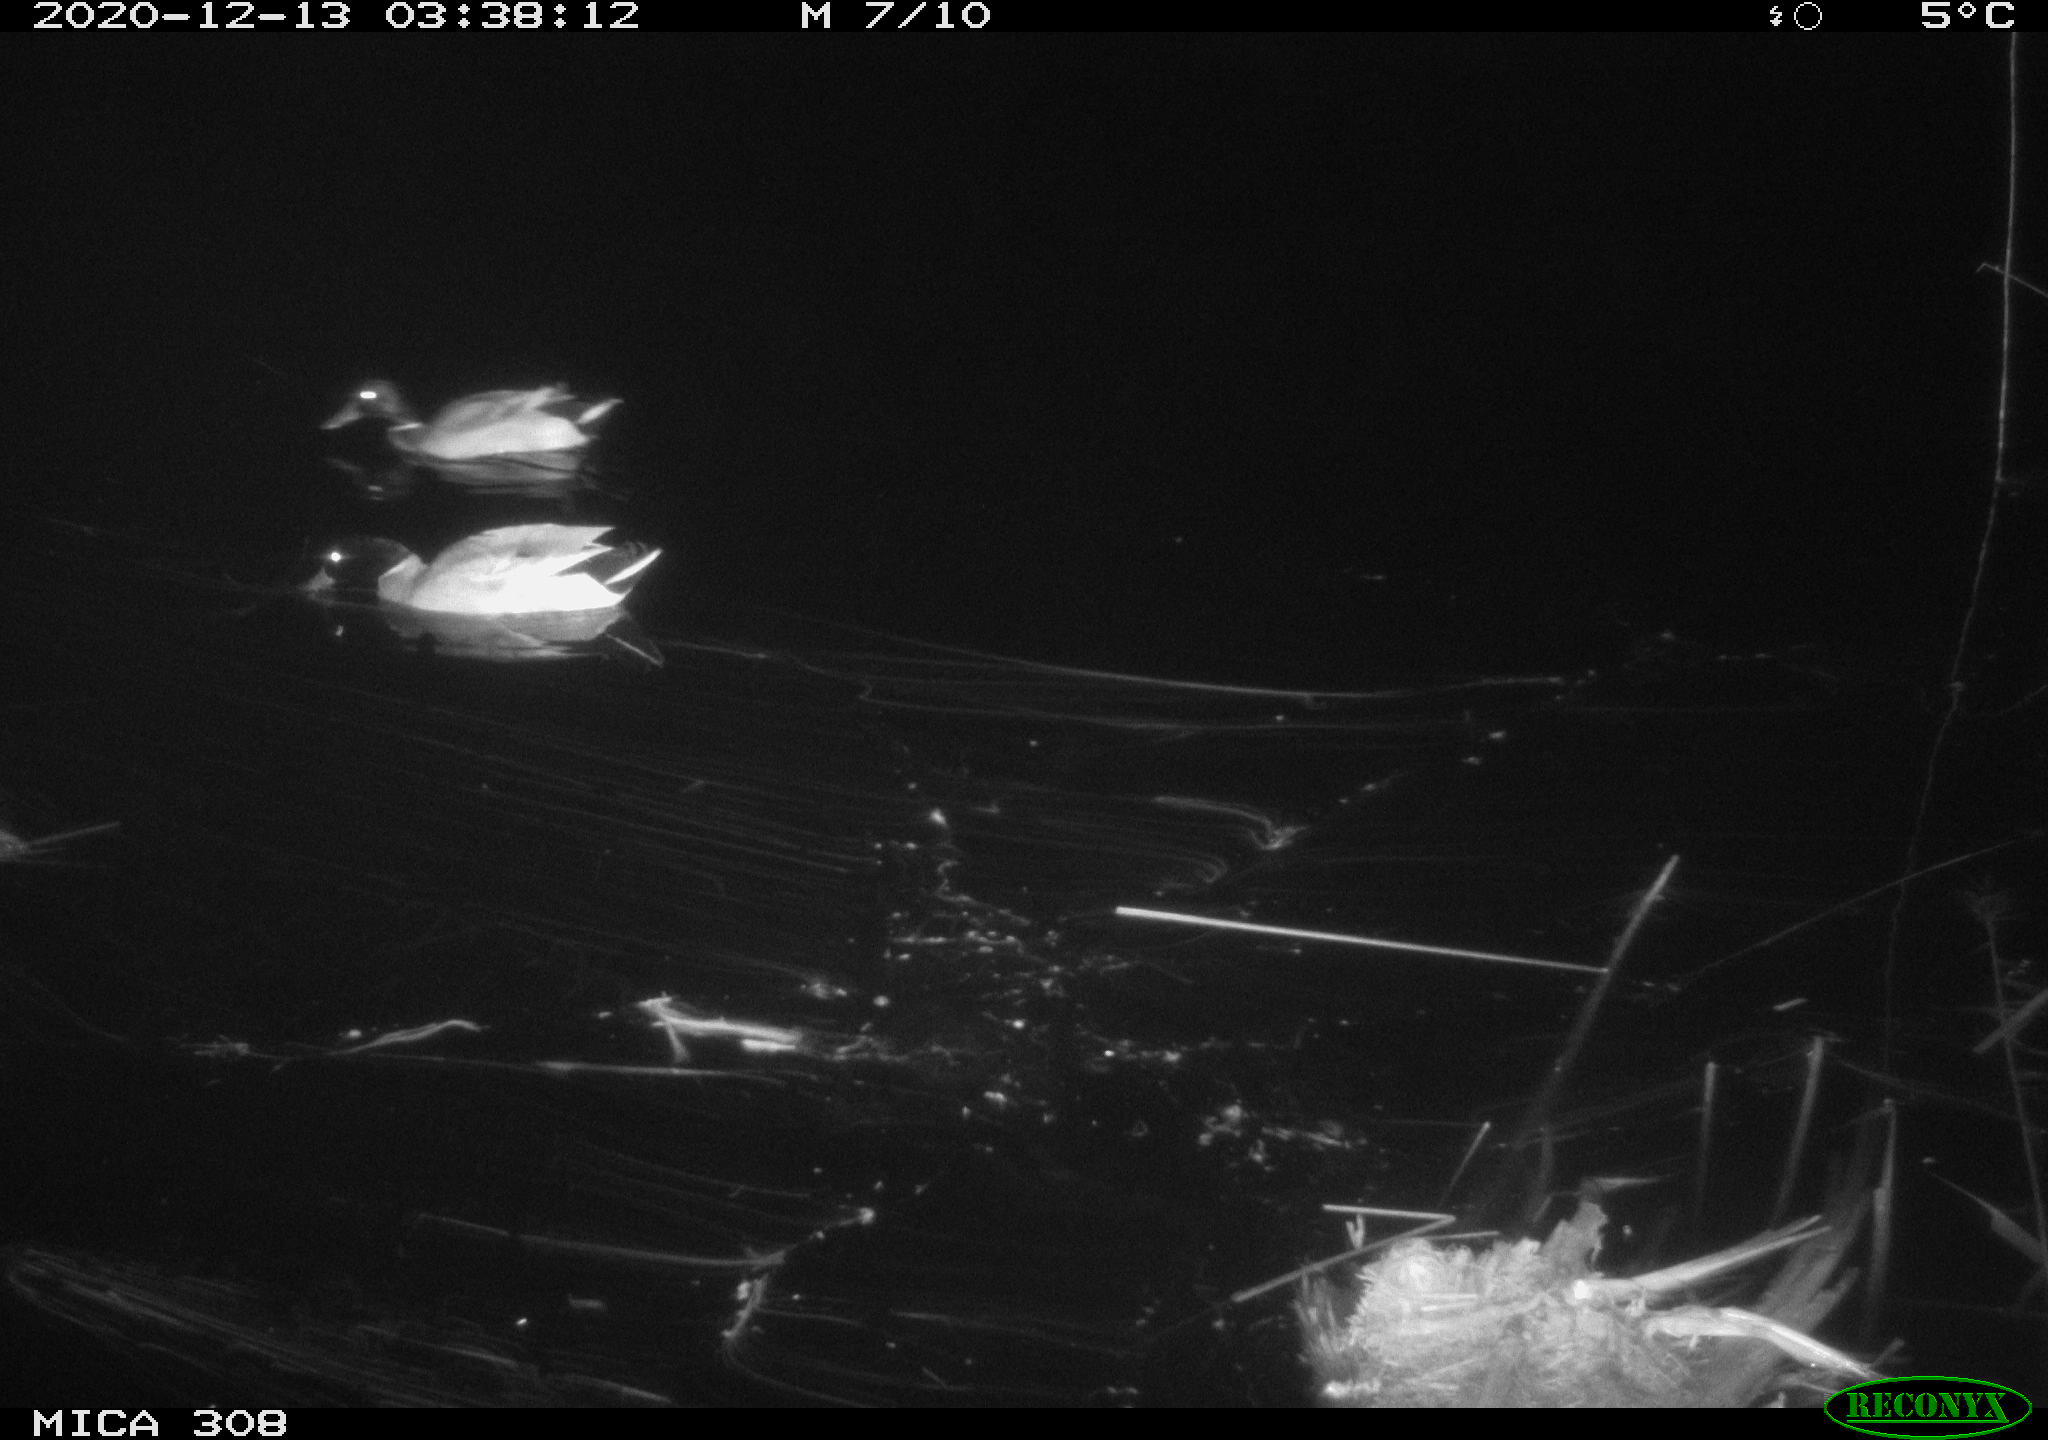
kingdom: Animalia
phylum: Chordata
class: Aves
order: Anseriformes
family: Anatidae
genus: Anas
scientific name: Anas platyrhynchos
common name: Mallard
